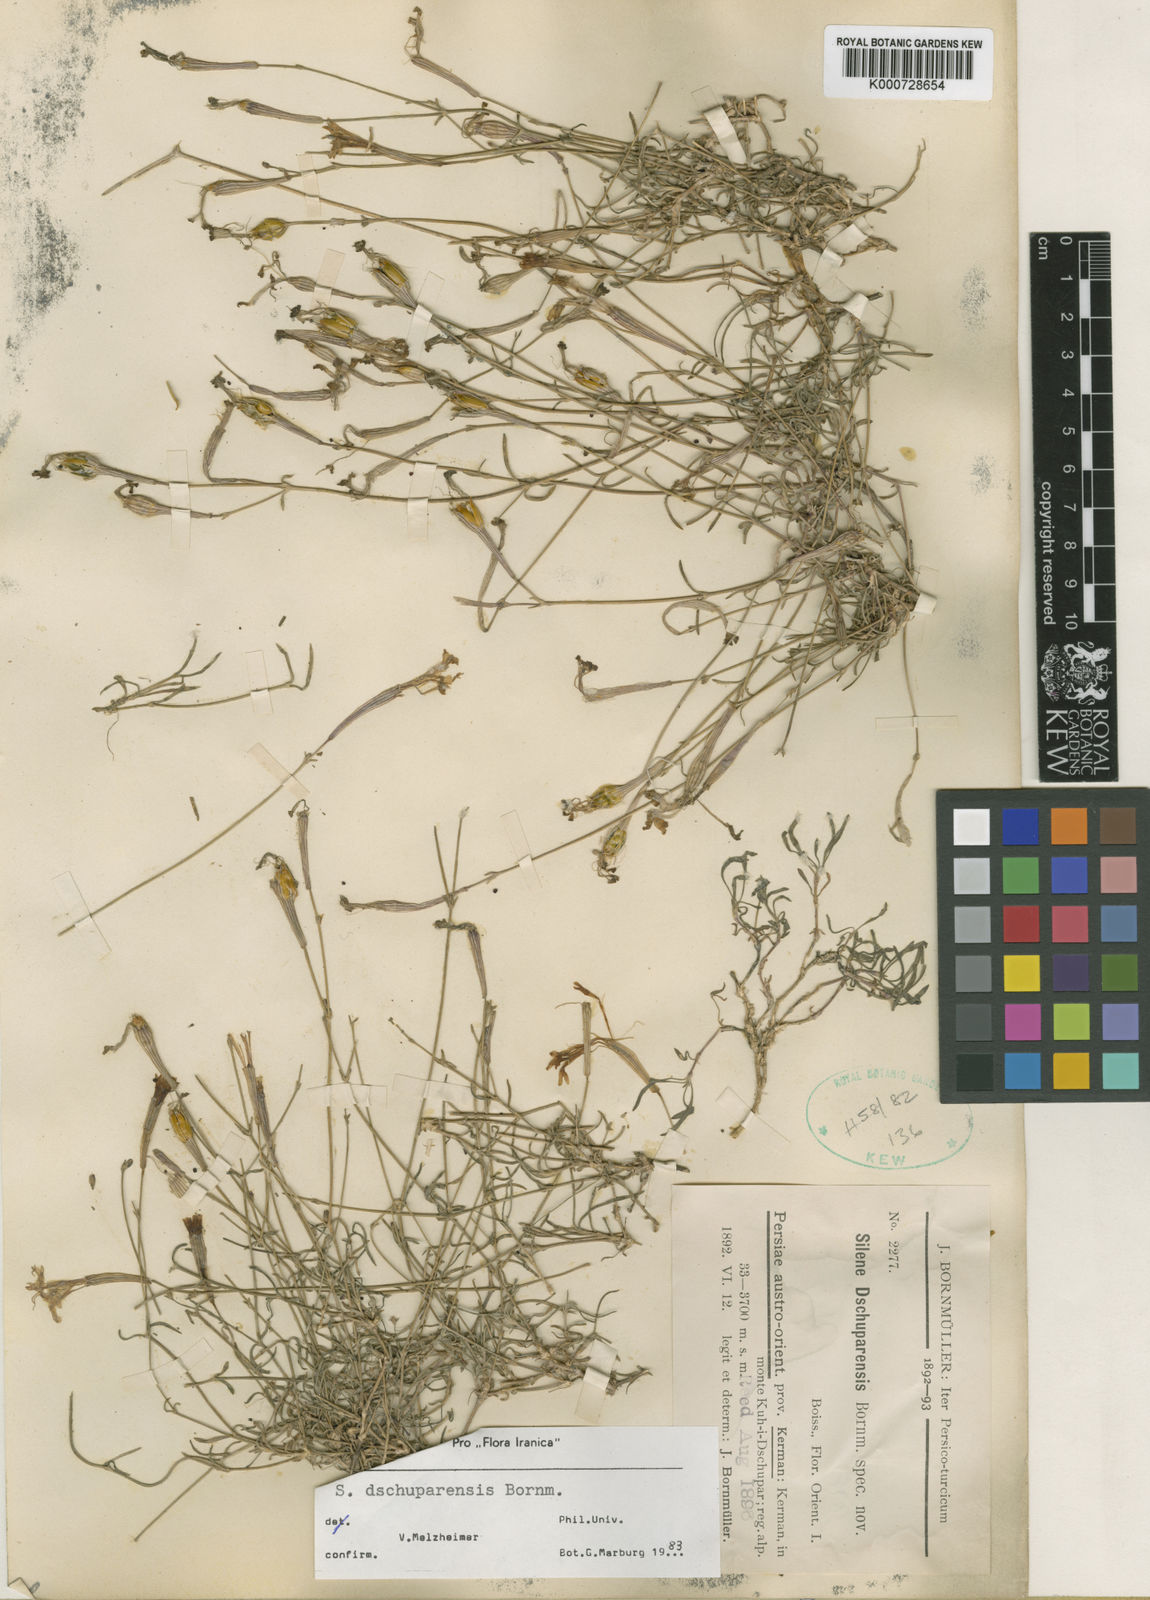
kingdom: Plantae
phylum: Tracheophyta
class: Magnoliopsida
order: Caryophyllales
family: Caryophyllaceae
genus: Silene
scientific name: Silene dschuparensis
